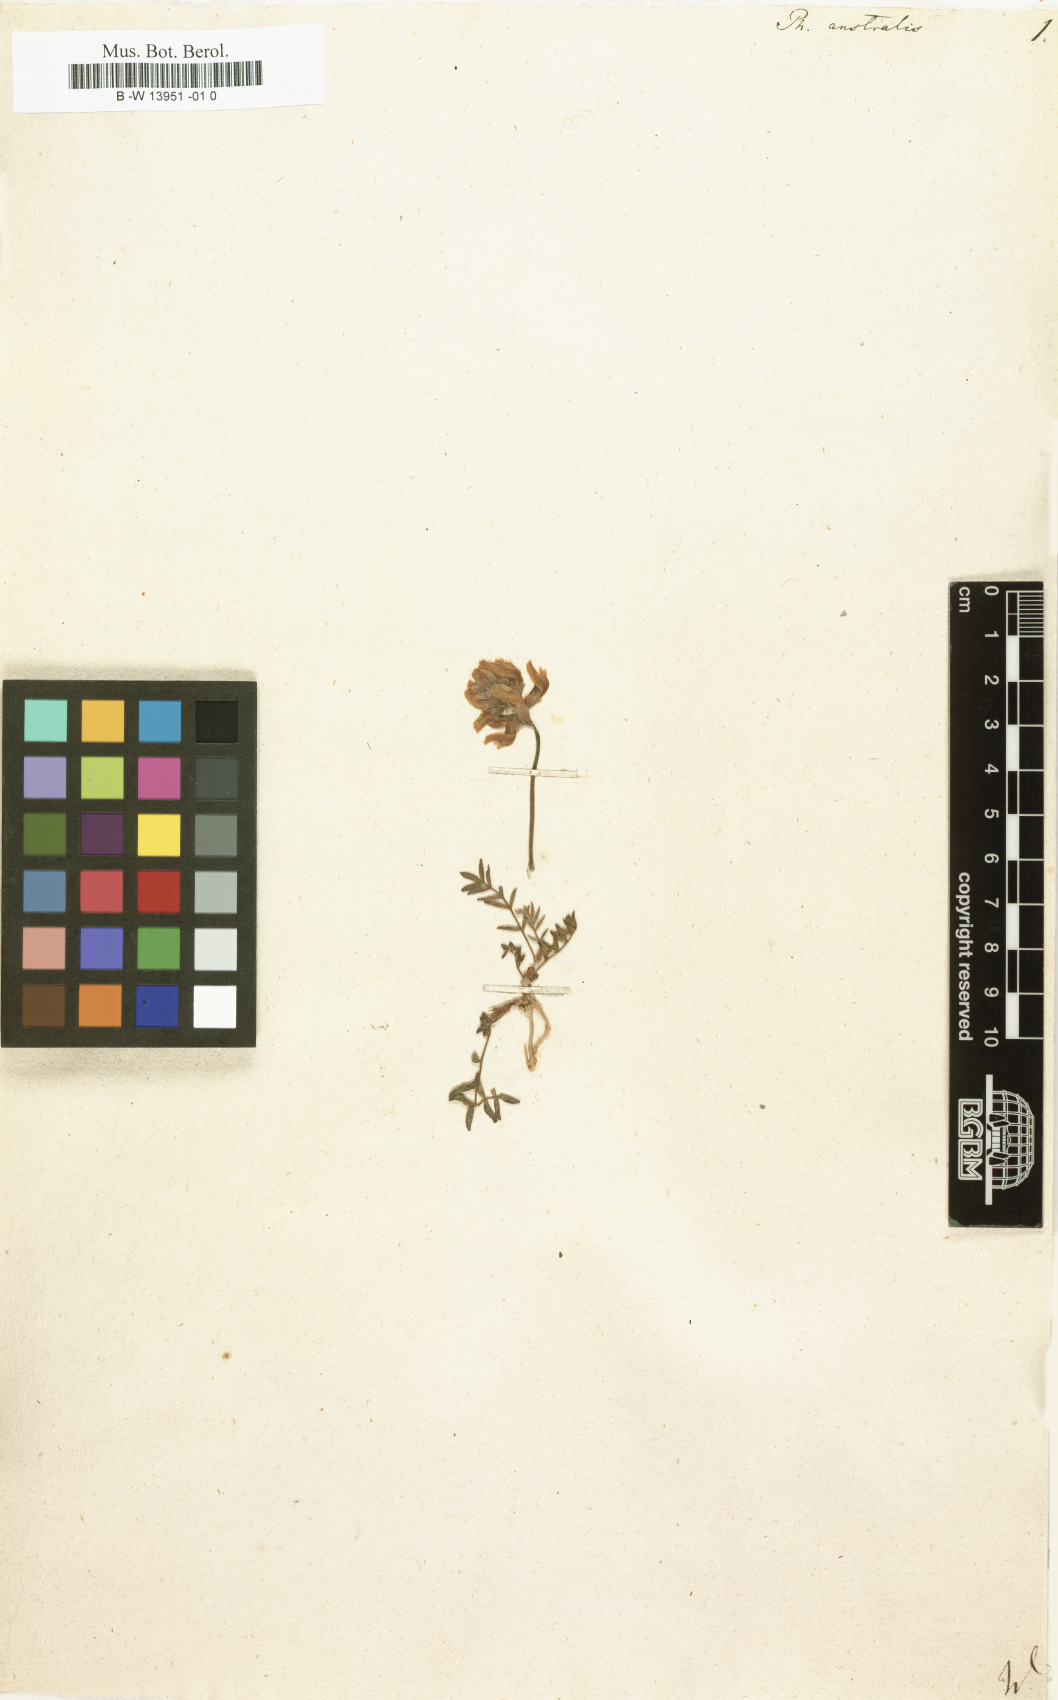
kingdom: Plantae
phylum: Tracheophyta
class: Magnoliopsida
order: Fabales
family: Fabaceae
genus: Astragalus
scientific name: Astragalus vaginatus
